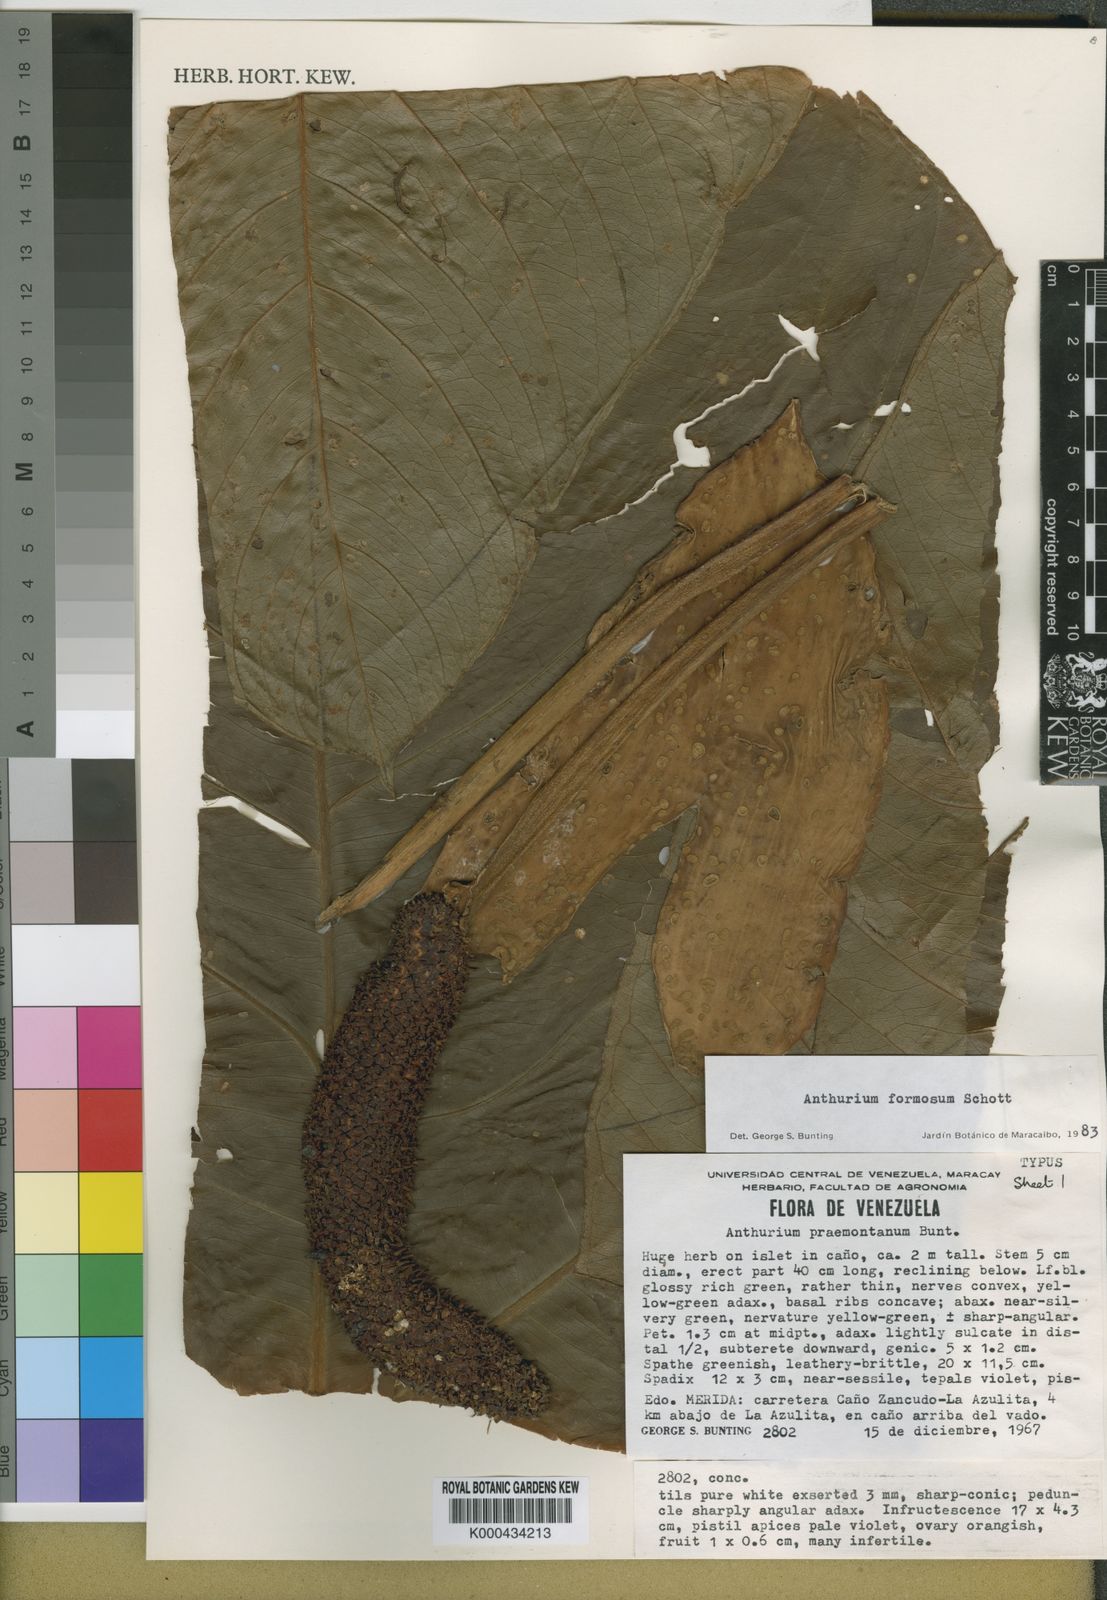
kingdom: Plantae
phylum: Tracheophyta
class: Liliopsida
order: Alismatales
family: Araceae
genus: Anthurium
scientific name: Anthurium formosum
